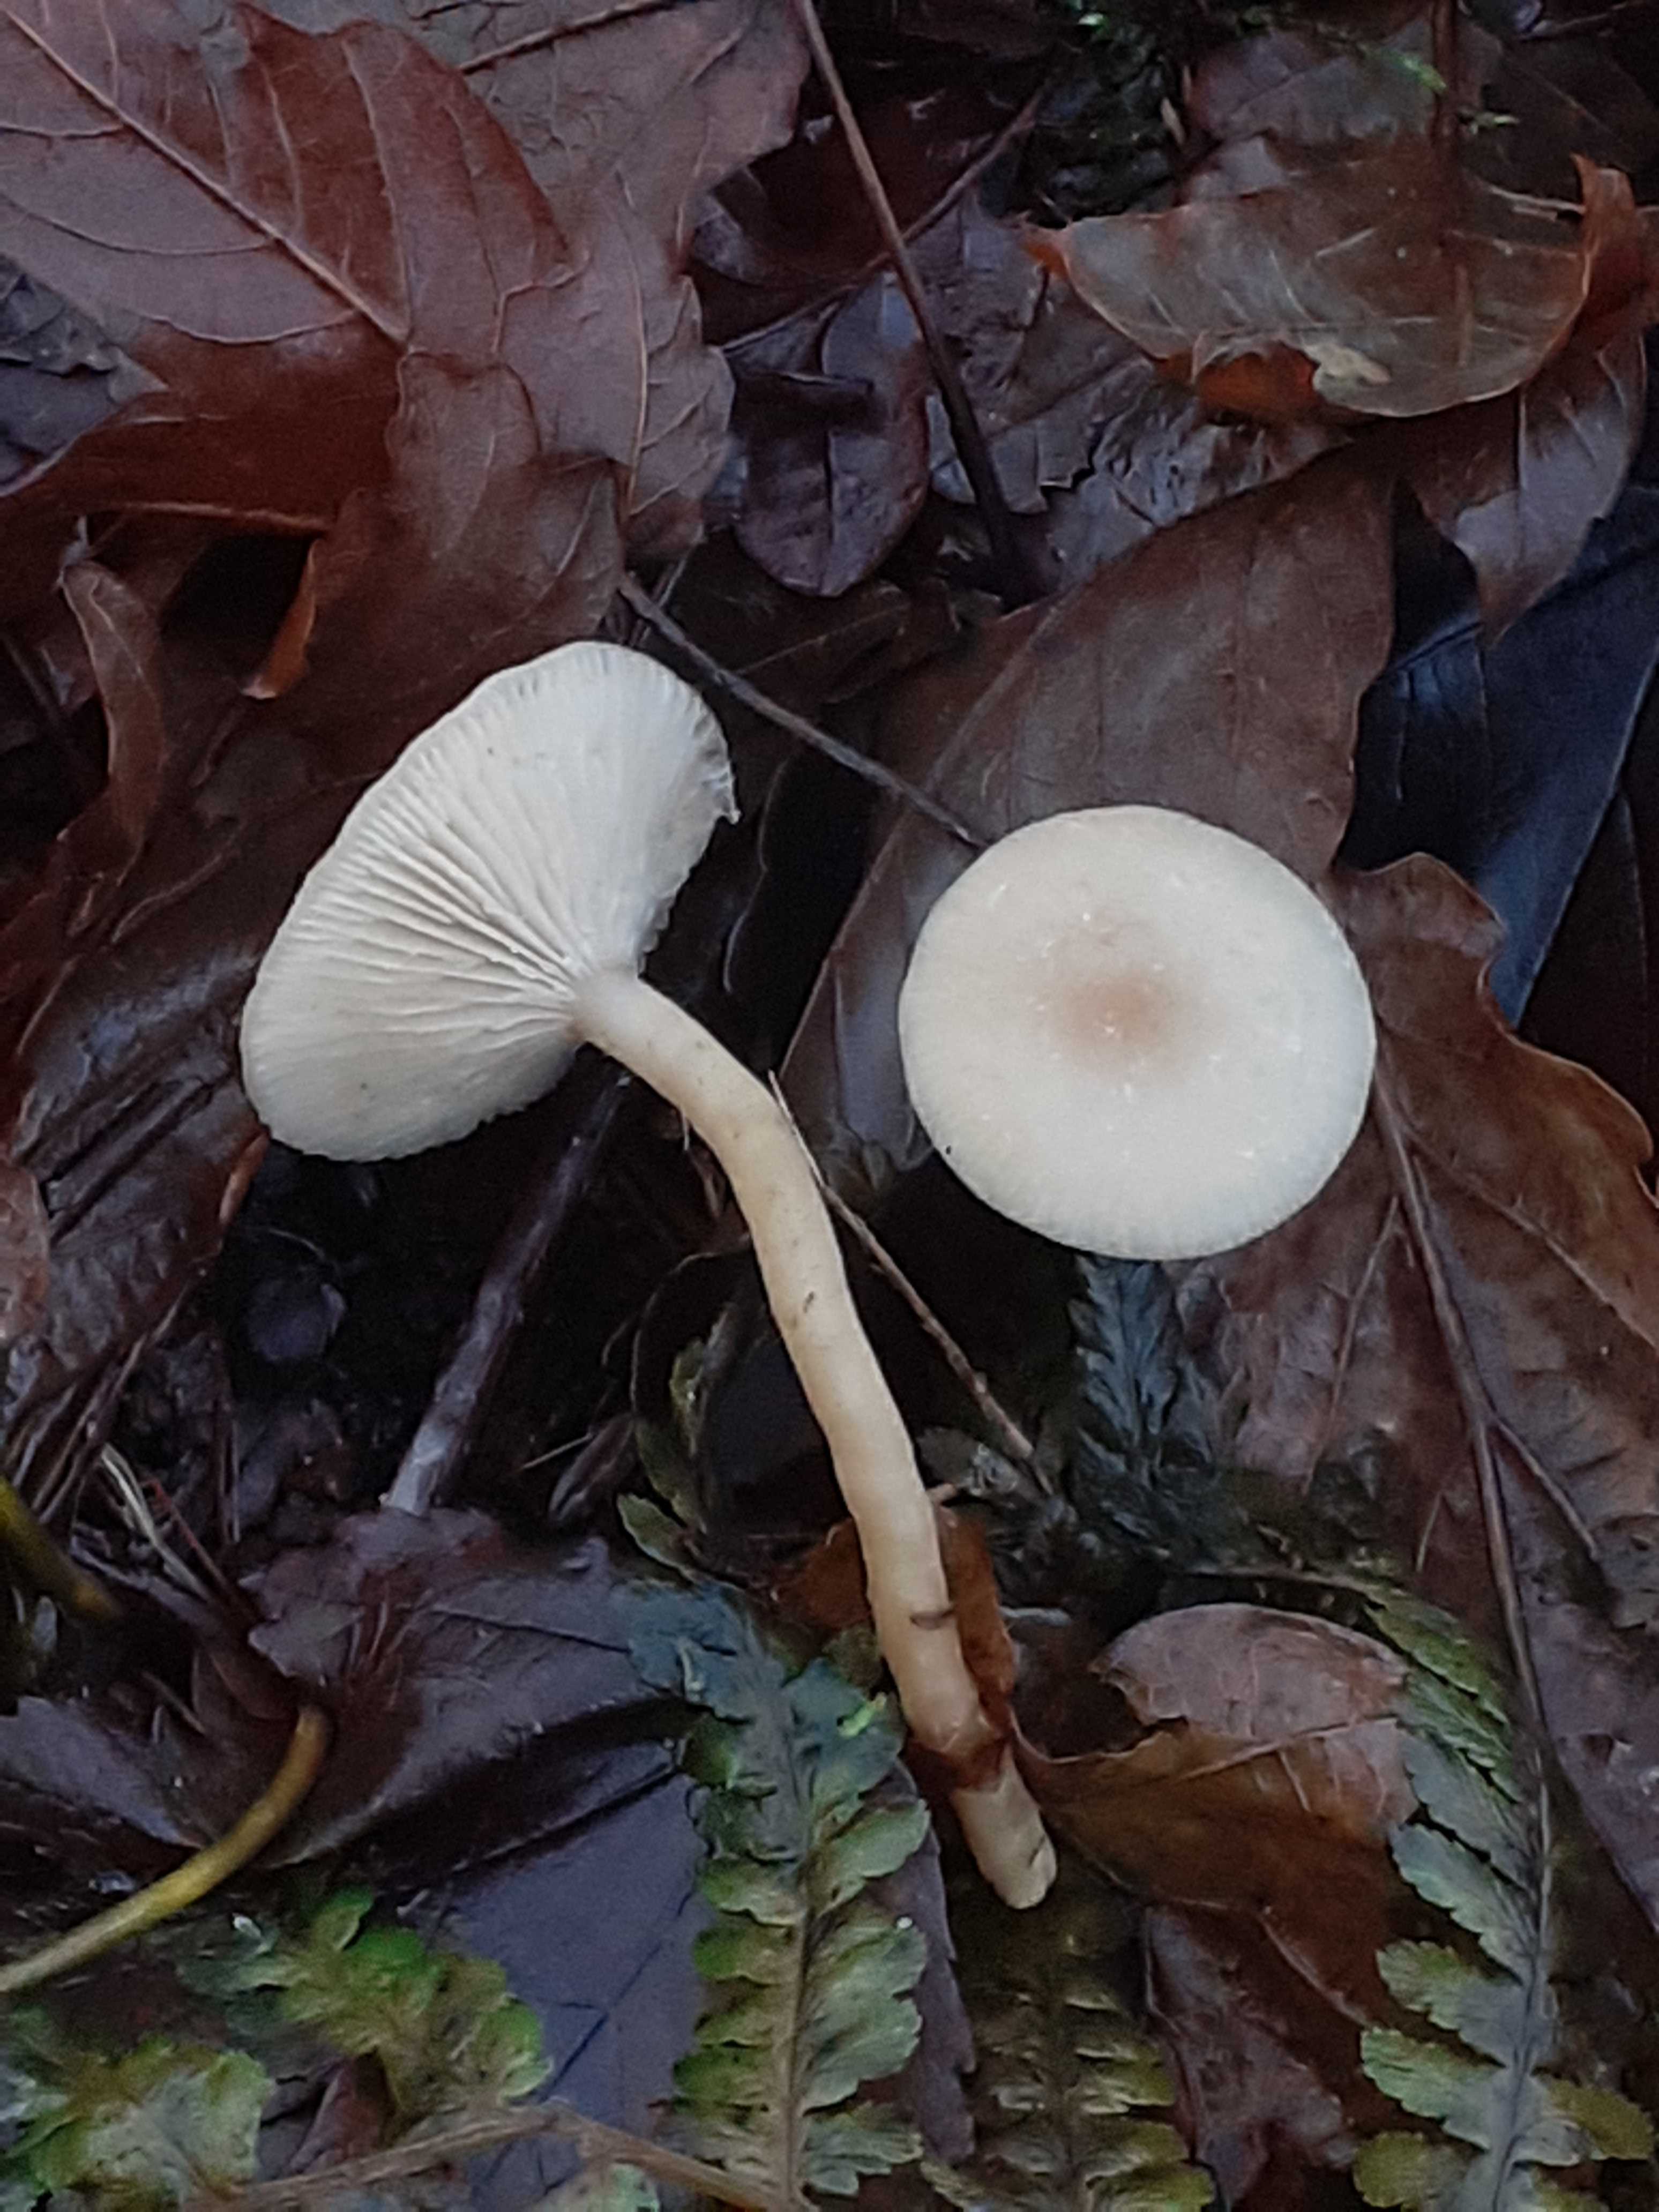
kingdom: Fungi
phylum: Basidiomycota
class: Agaricomycetes
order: Agaricales
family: Tricholomataceae
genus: Clitocybe
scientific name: Clitocybe fragrans
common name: vellugtende tragthat
